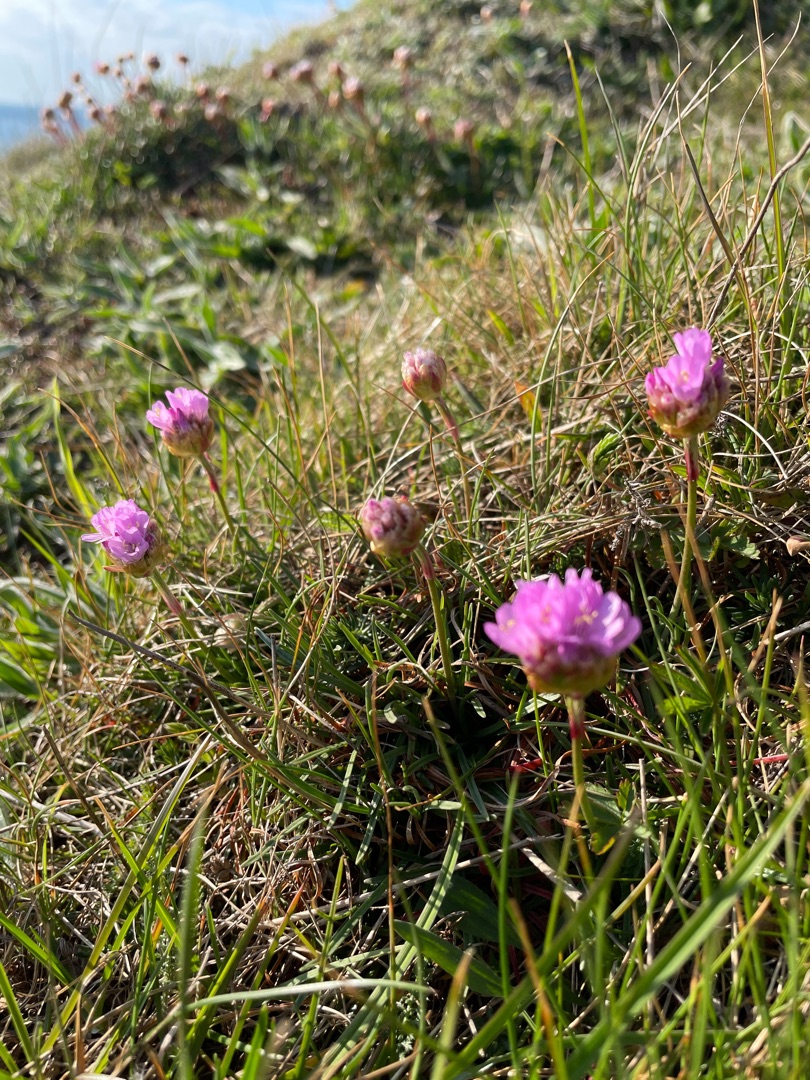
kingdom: Plantae
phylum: Tracheophyta
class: Magnoliopsida
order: Caryophyllales
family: Plumbaginaceae
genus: Armeria
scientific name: Armeria maritima
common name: Engelskgræs
